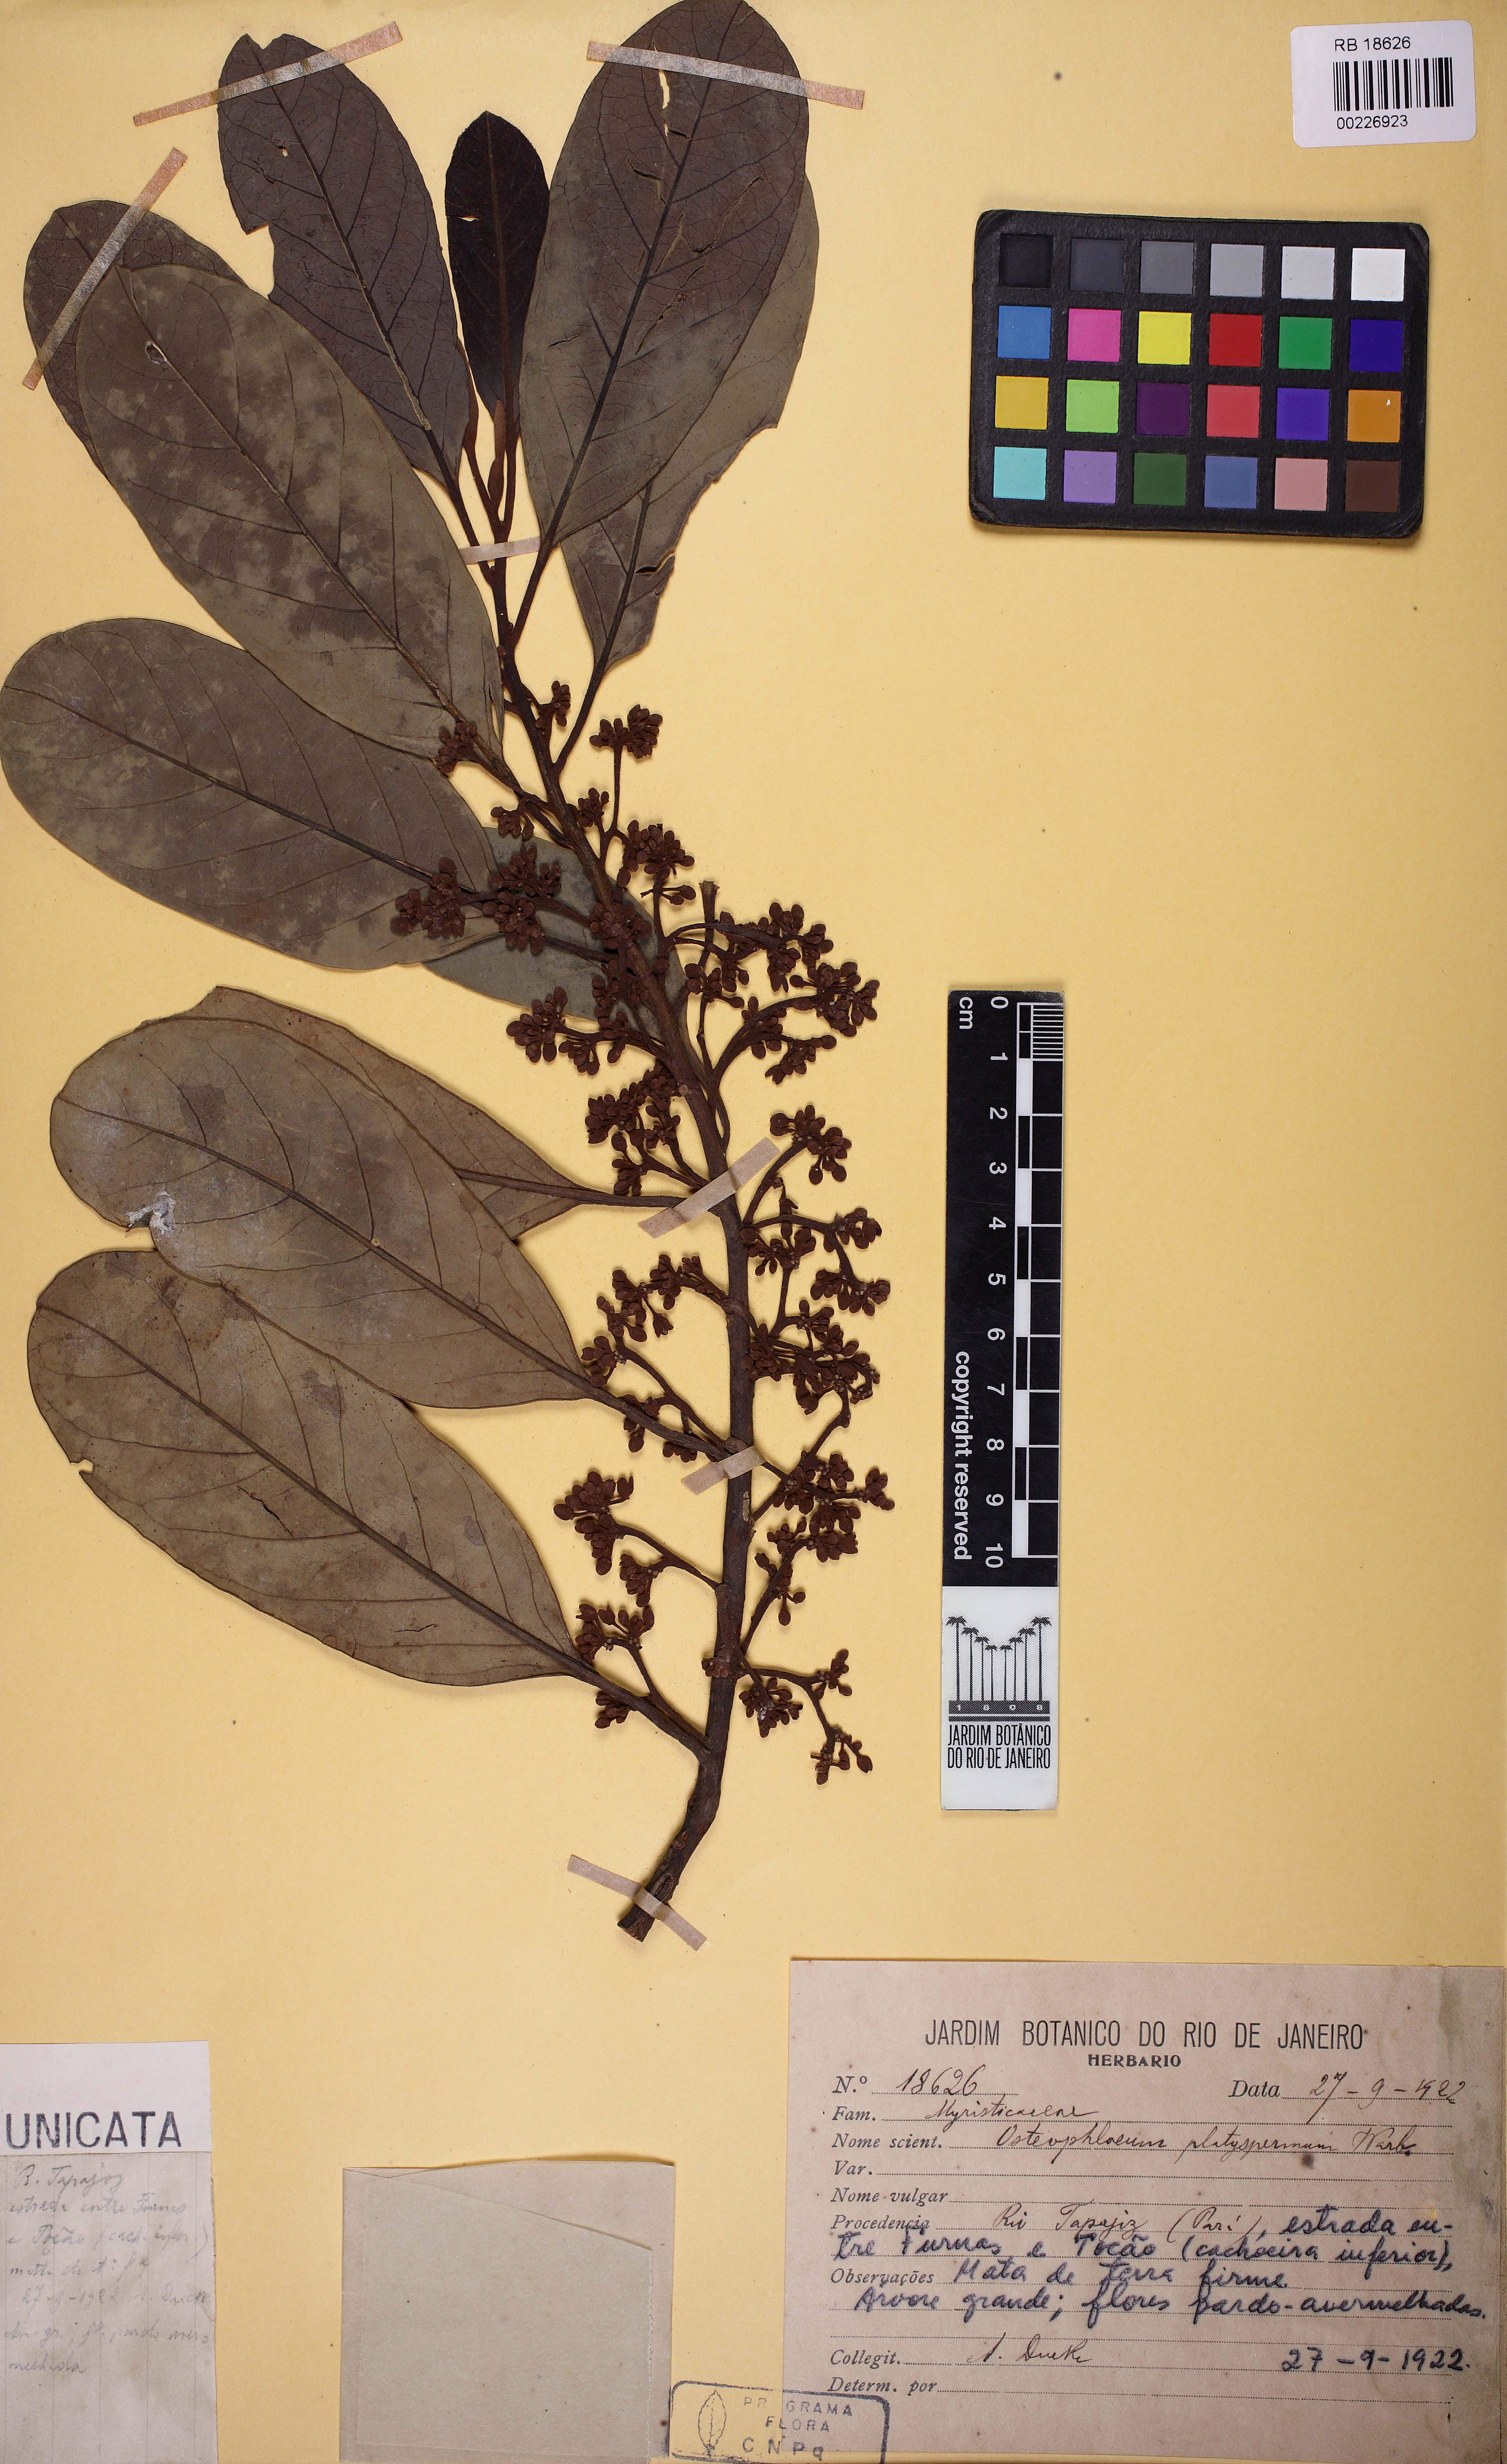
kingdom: Plantae
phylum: Tracheophyta
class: Magnoliopsida
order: Magnoliales
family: Myristicaceae
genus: Osteophloeum
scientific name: Osteophloeum platyspermum
